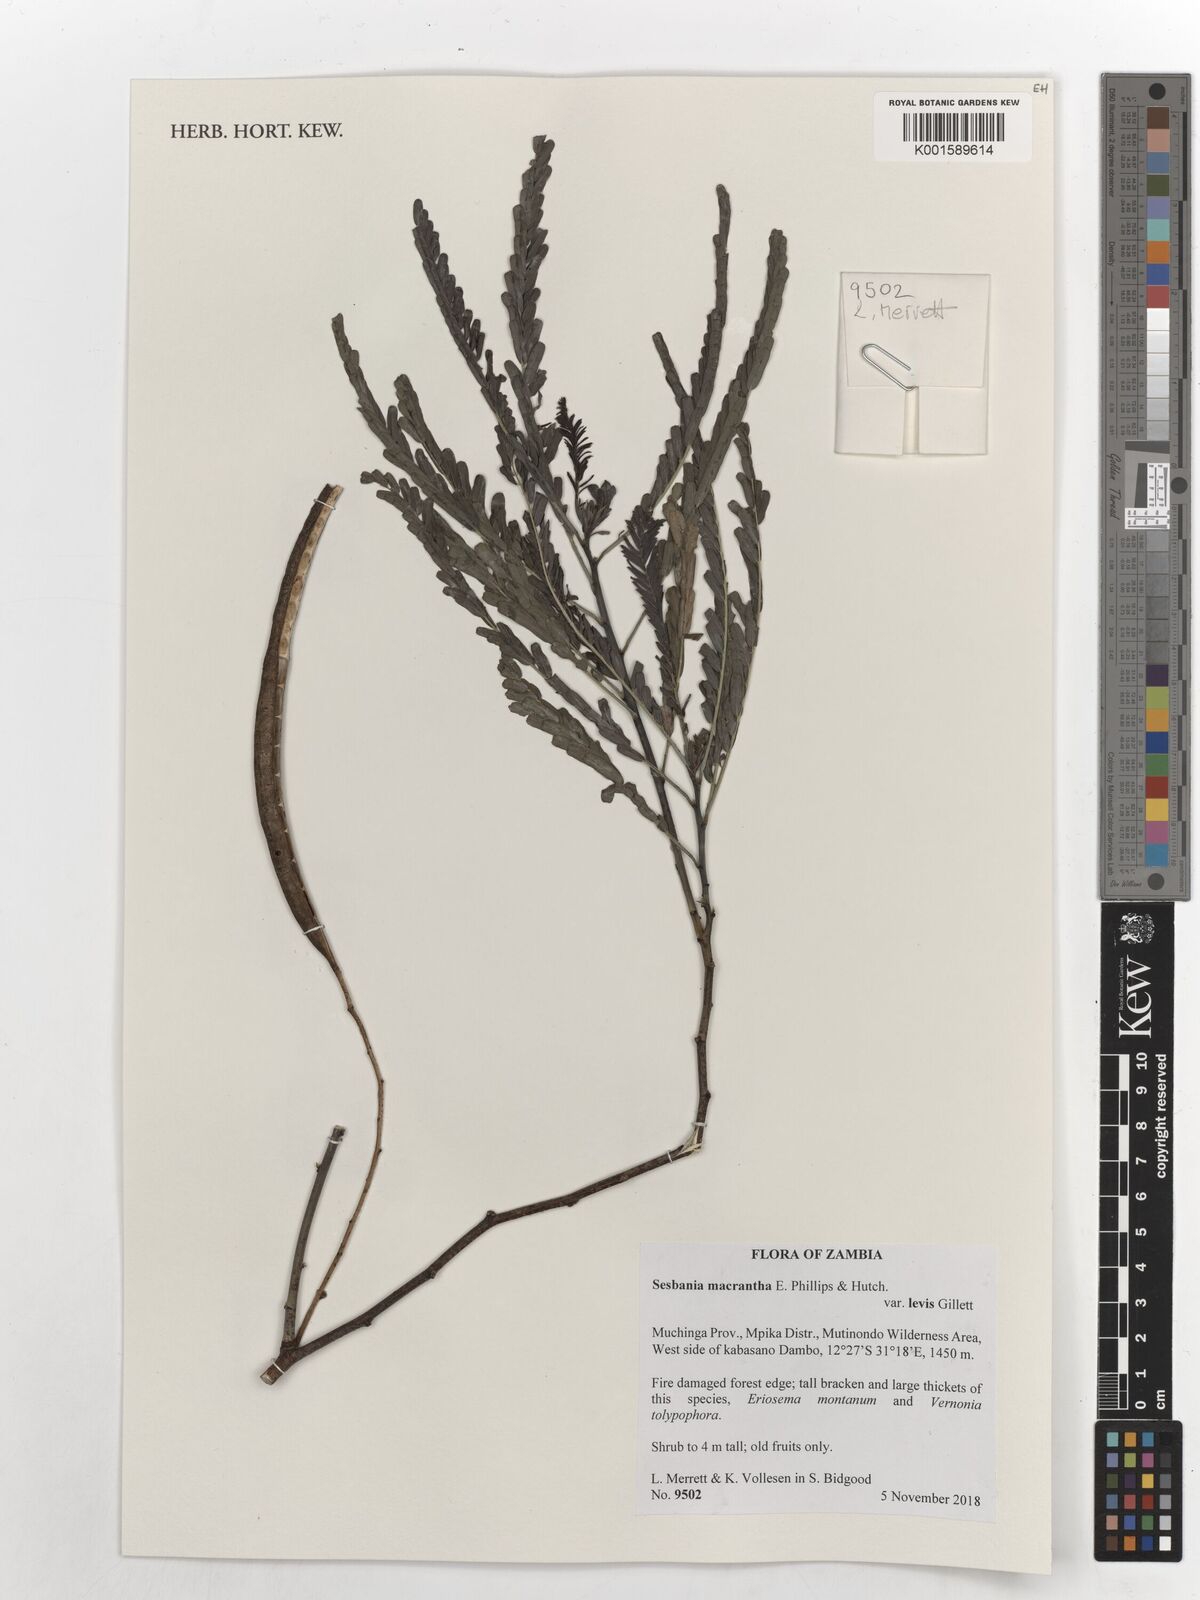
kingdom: Plantae
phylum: Tracheophyta
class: Magnoliopsida
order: Fabales
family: Fabaceae
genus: Sesbania
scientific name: Sesbania macrantha
